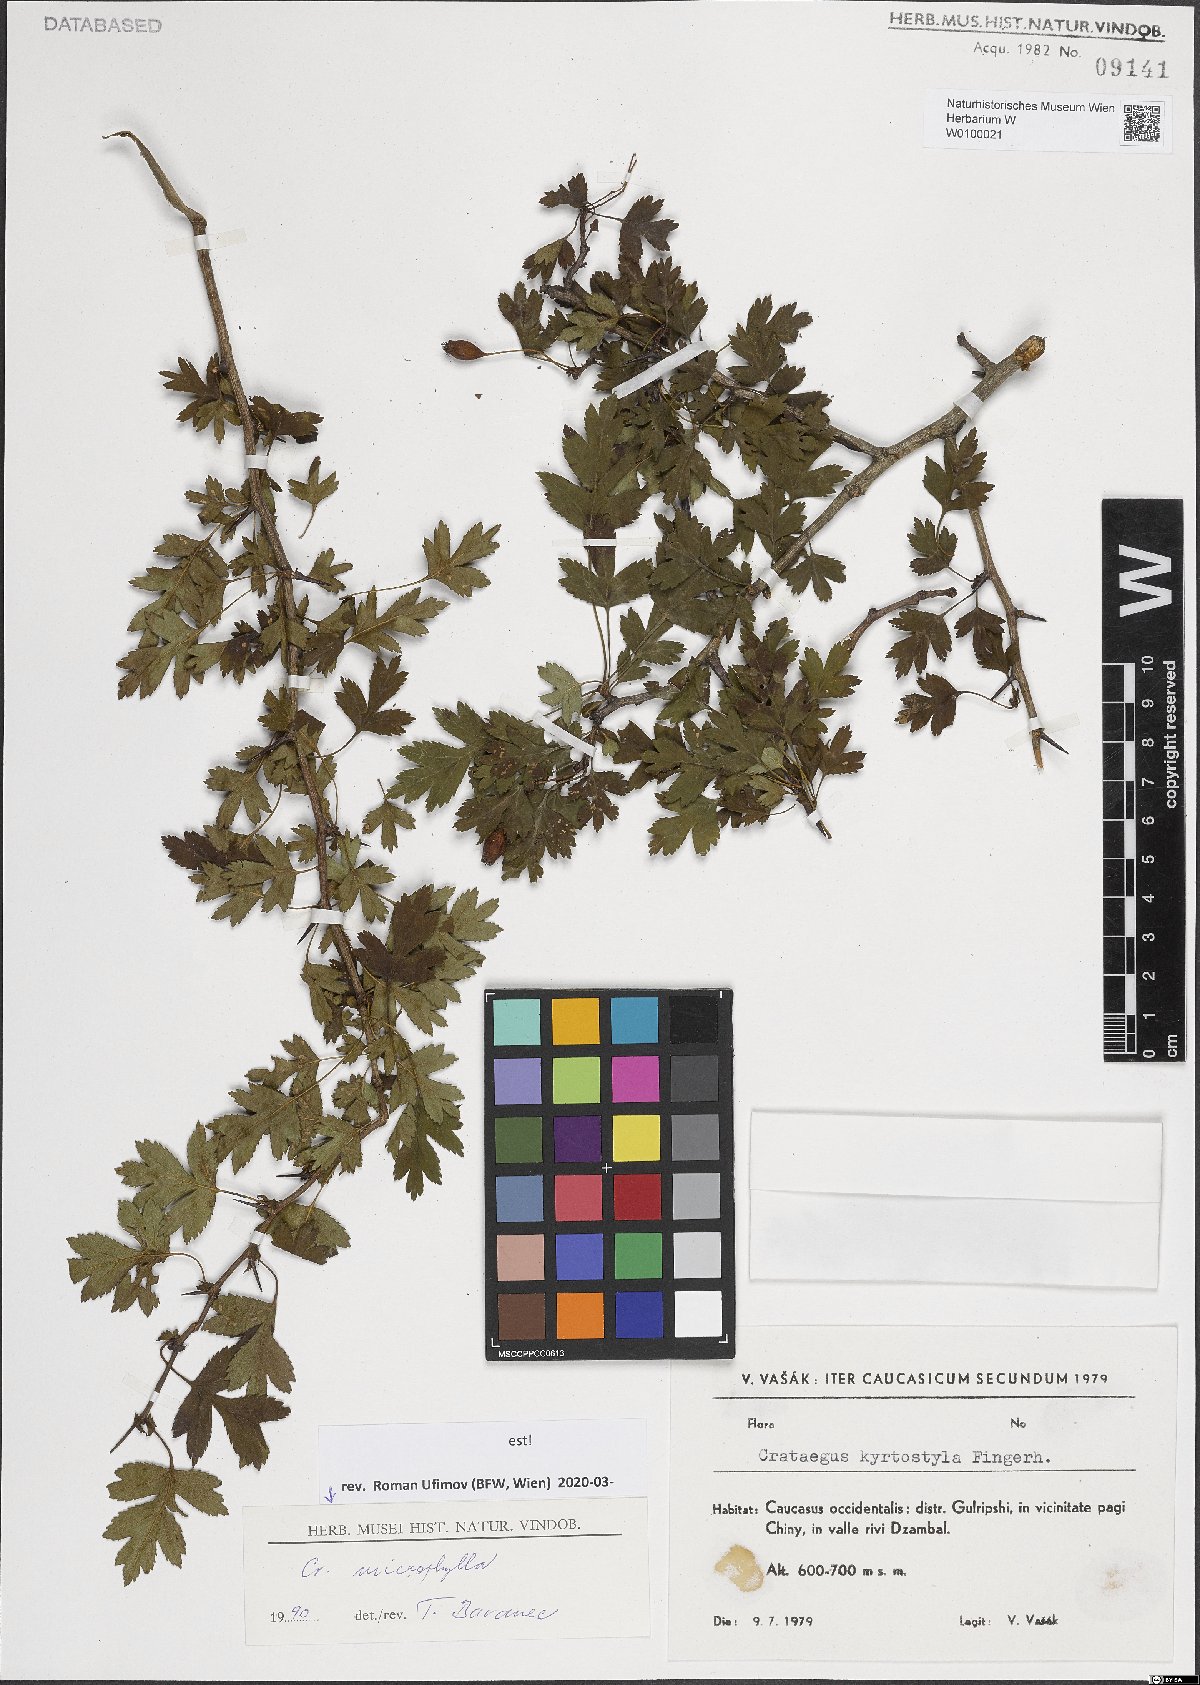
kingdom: Plantae
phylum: Tracheophyta
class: Magnoliopsida
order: Rosales
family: Rosaceae
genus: Crataegus
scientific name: Crataegus microphylla
